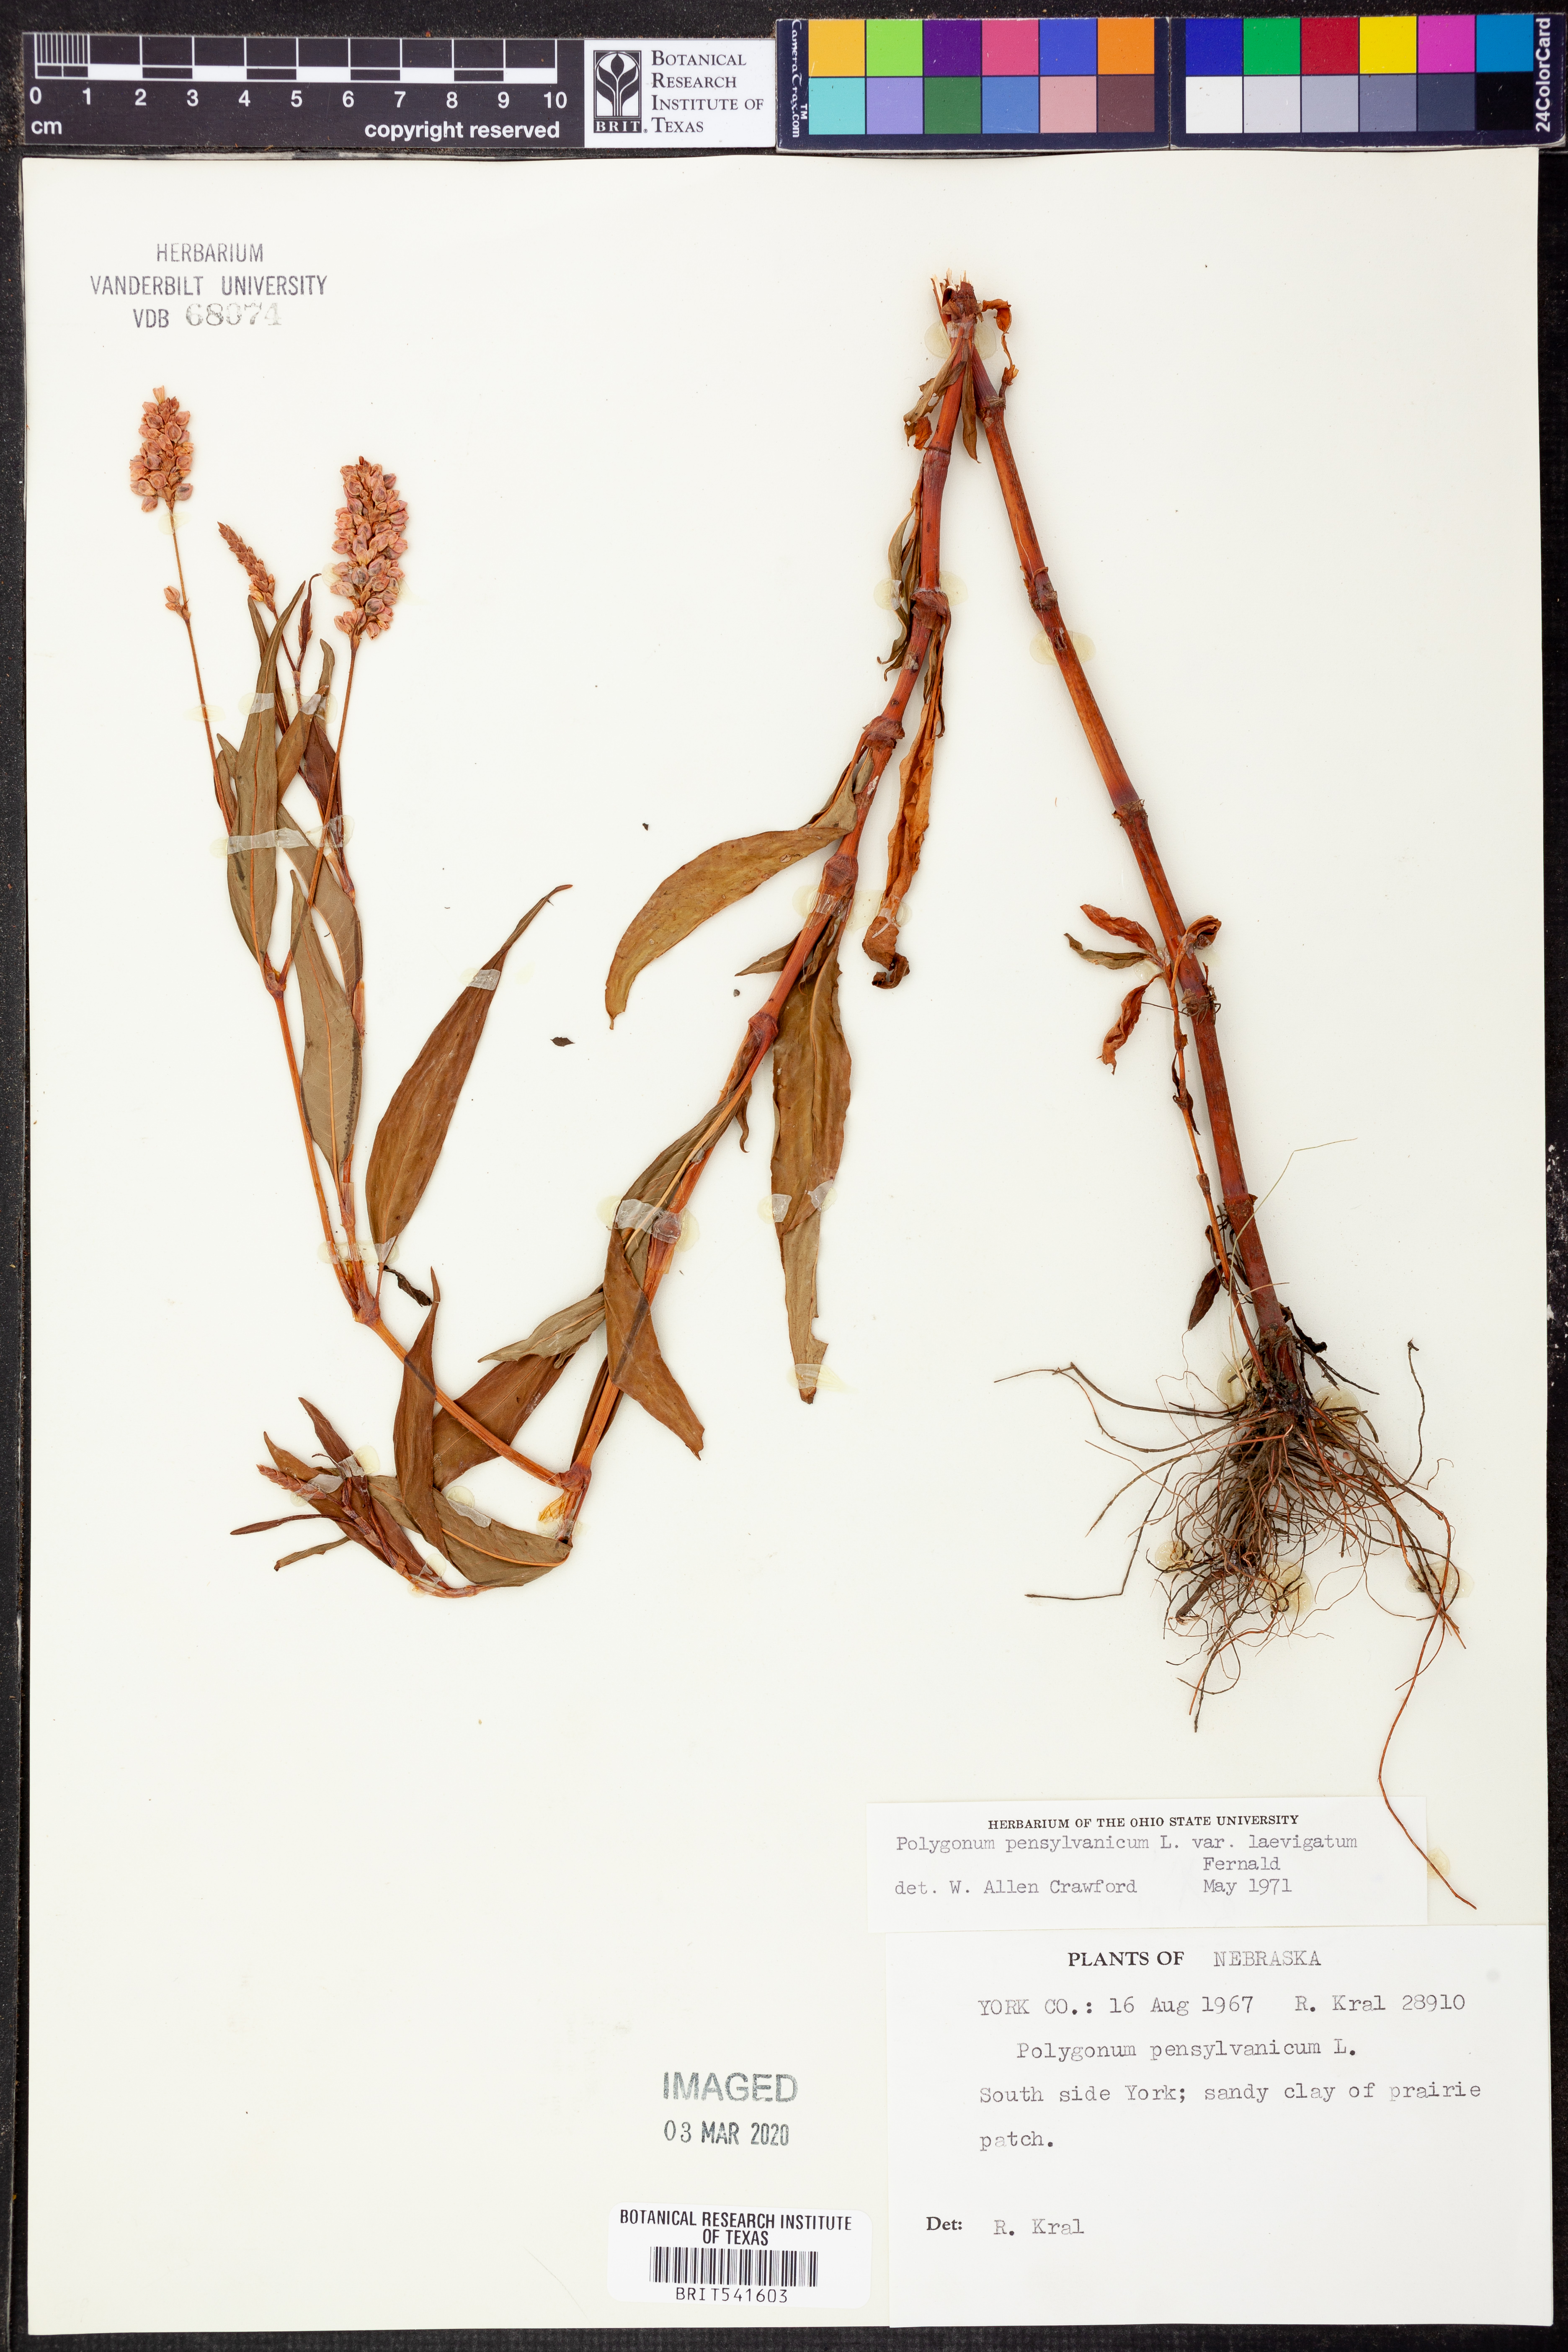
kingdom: Plantae
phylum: Tracheophyta
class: Magnoliopsida
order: Caryophyllales
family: Polygonaceae
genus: Persicaria
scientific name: Persicaria pensylvanica
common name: Pinkweed
